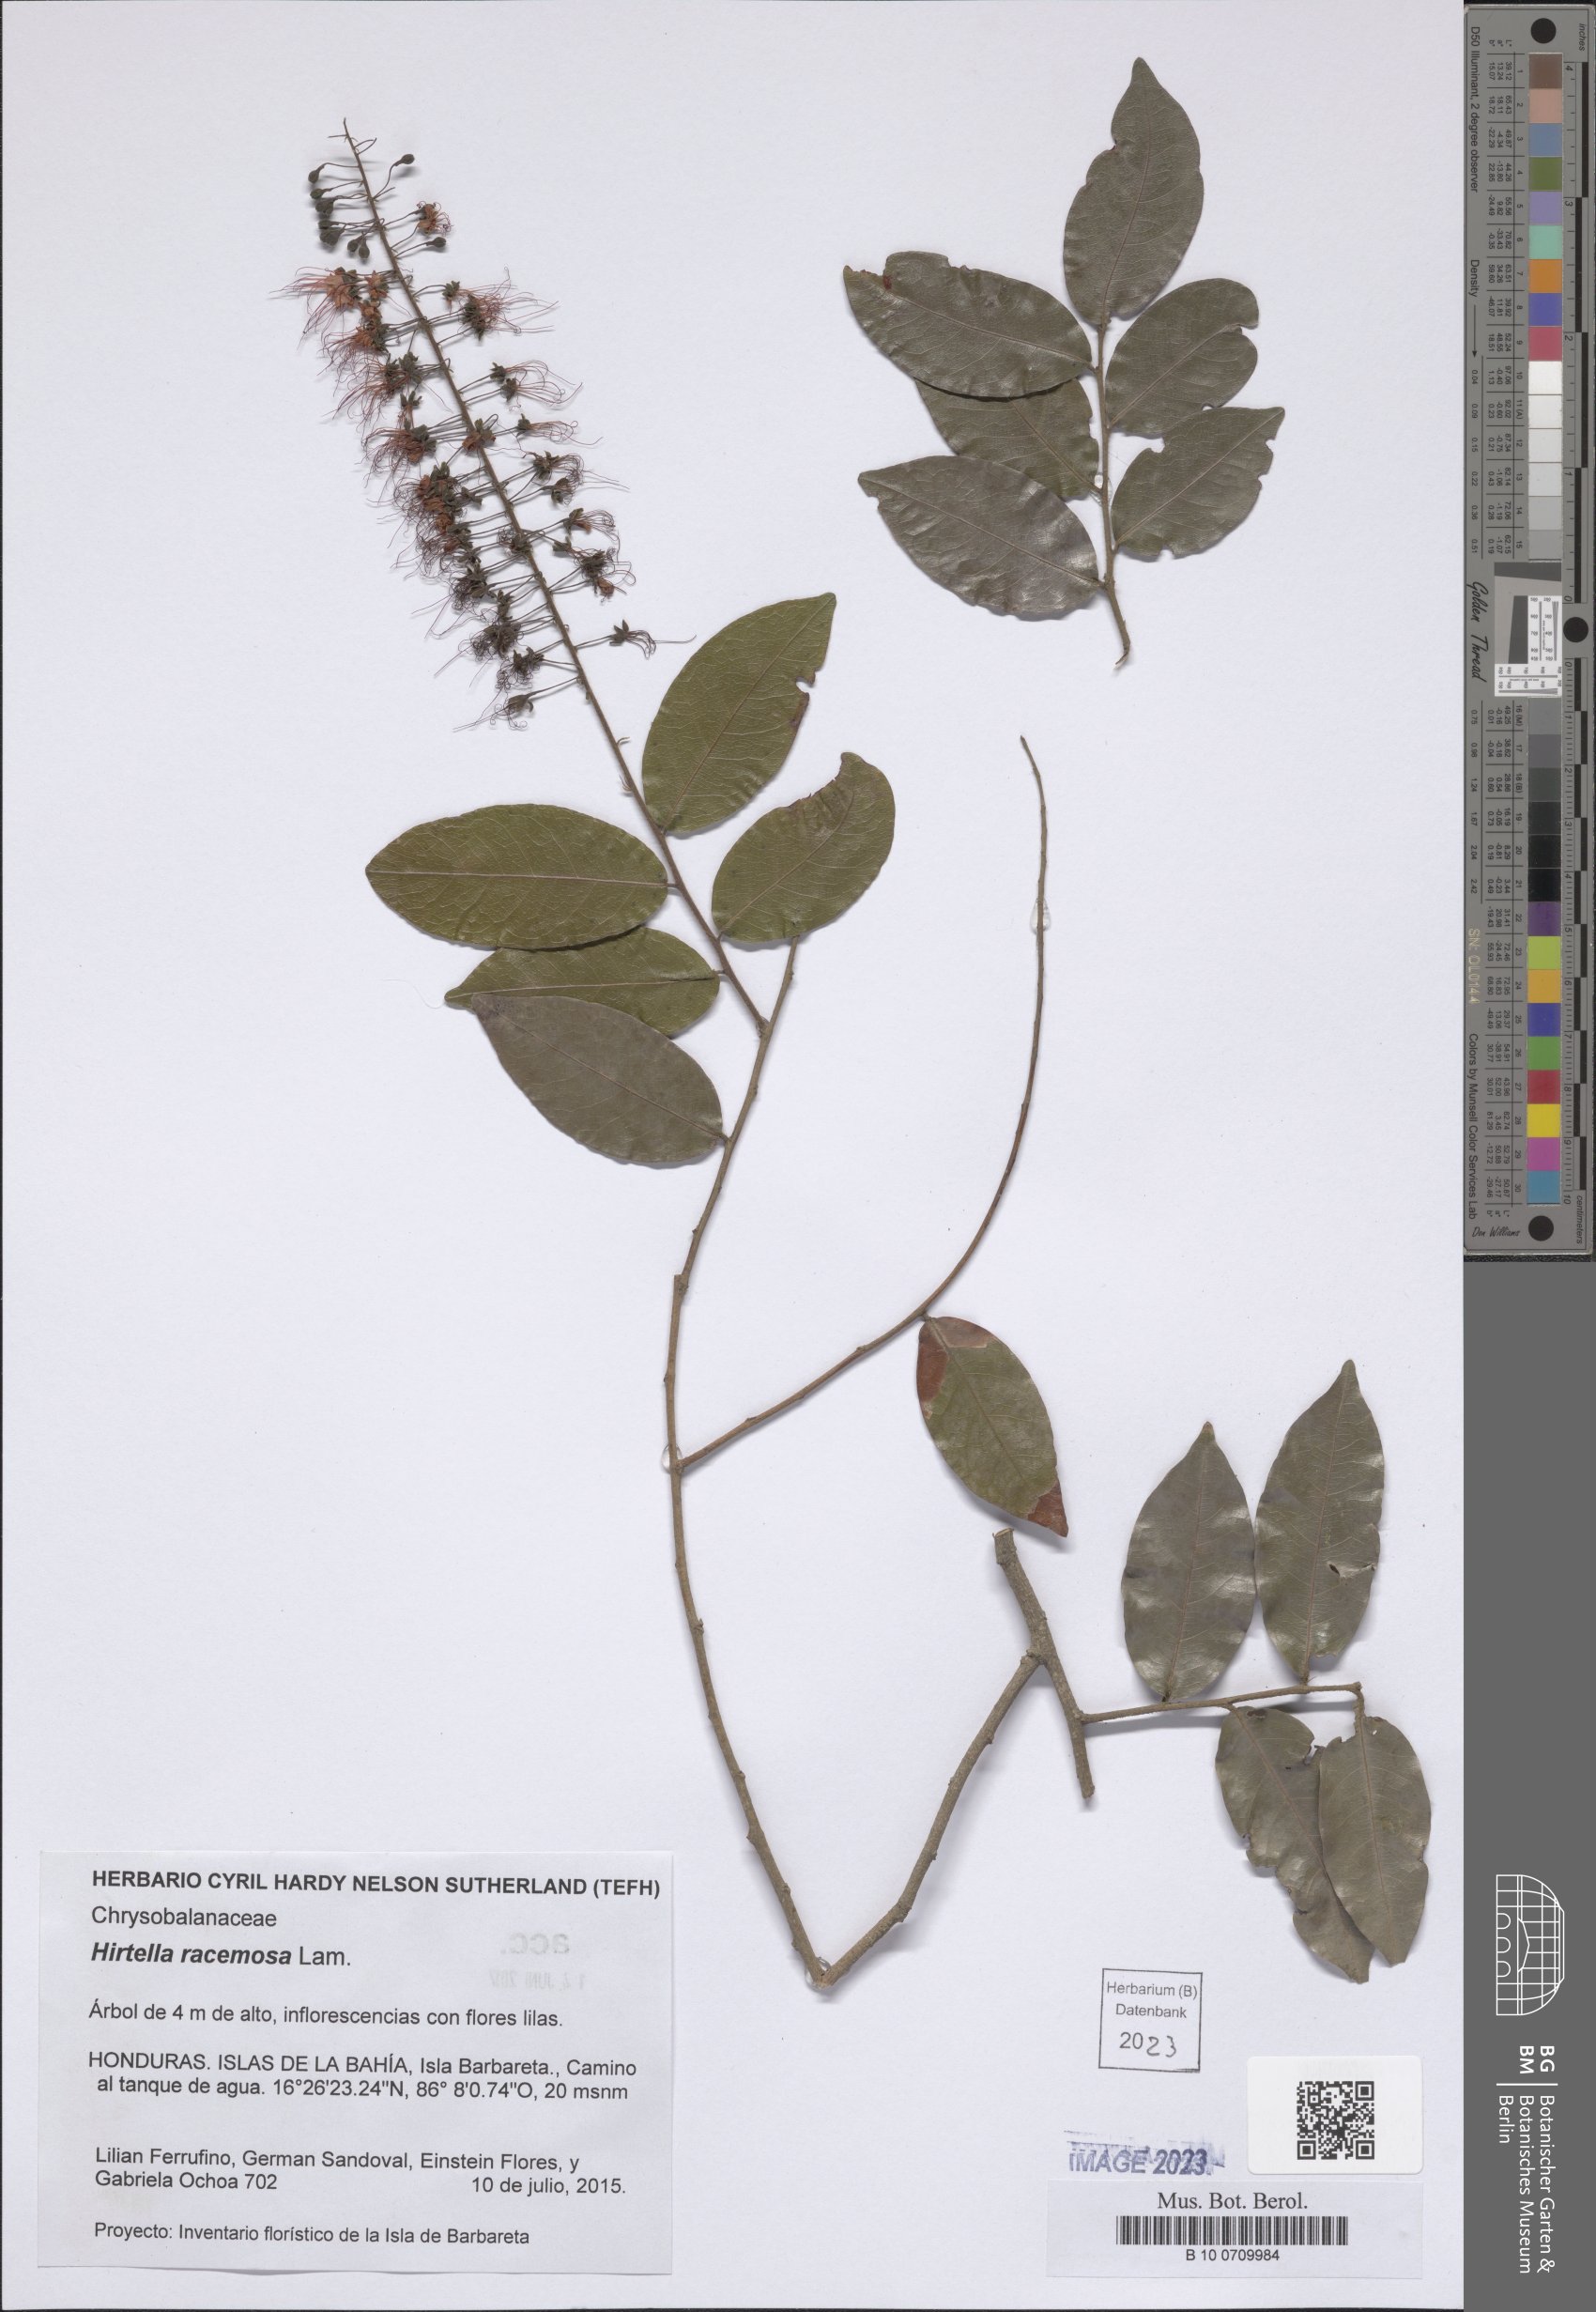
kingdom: Plantae
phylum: Tracheophyta
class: Magnoliopsida
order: Malpighiales
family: Chrysobalanaceae
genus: Hirtella
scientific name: Hirtella racemosa
